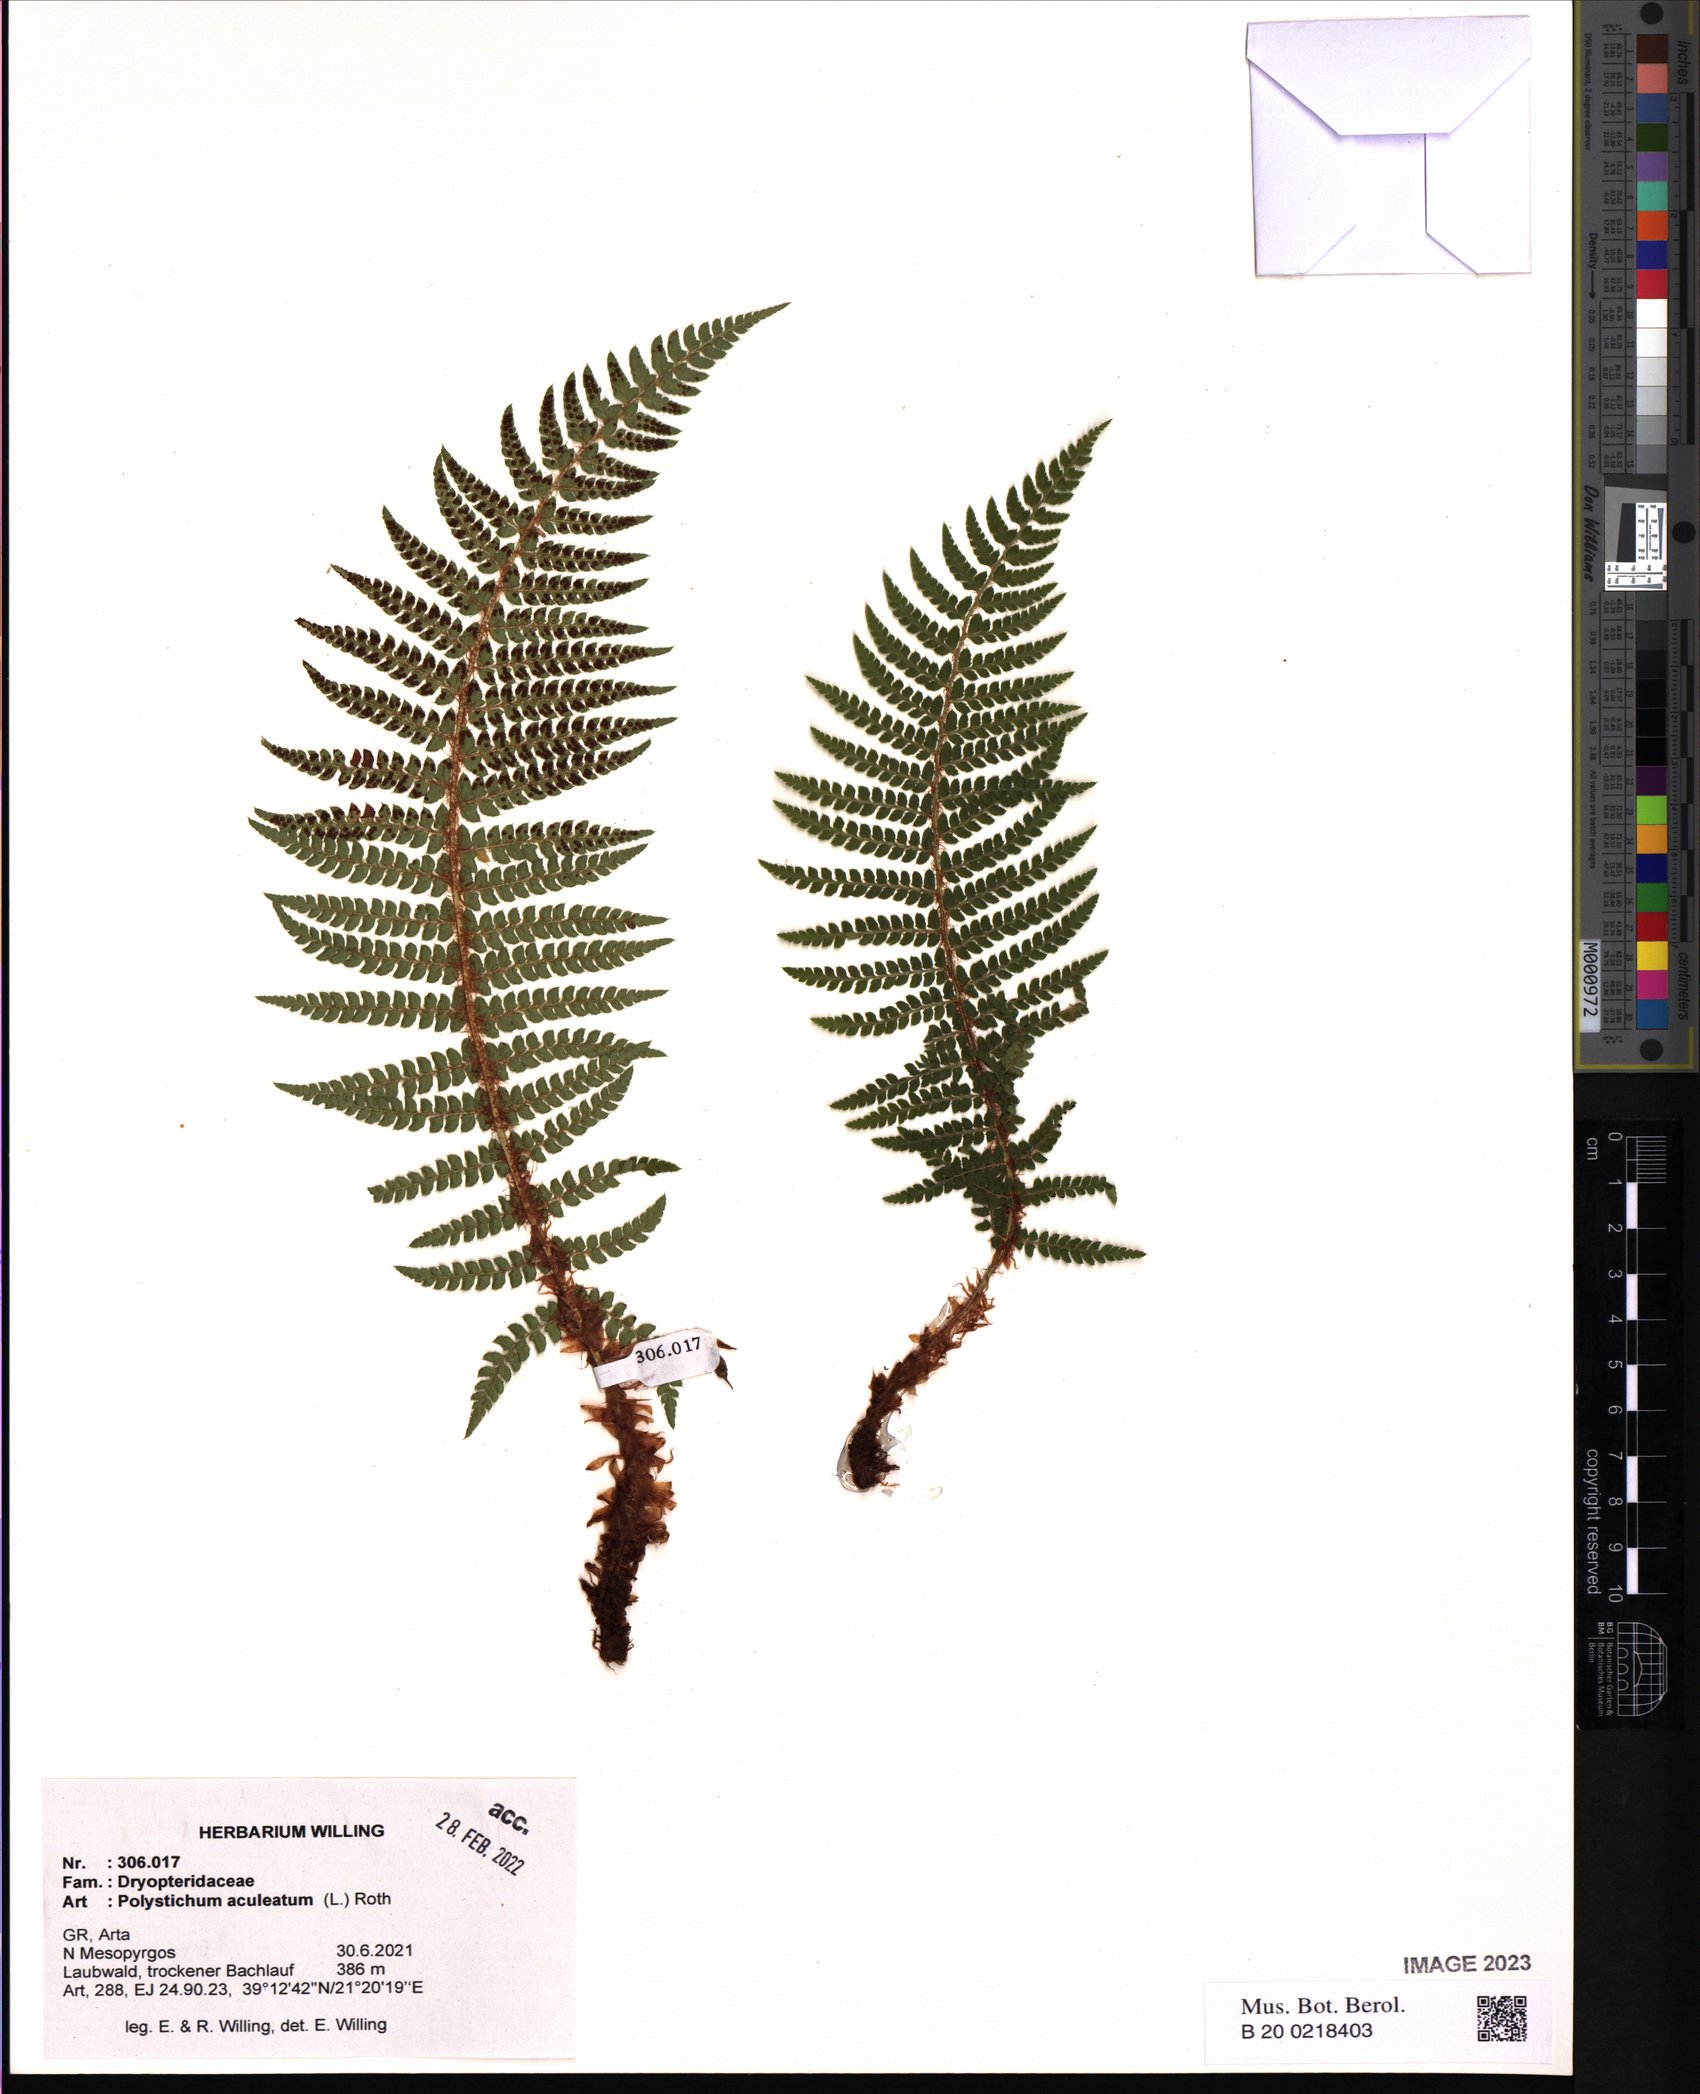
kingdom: Plantae
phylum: Tracheophyta
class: Polypodiopsida
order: Polypodiales
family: Dryopteridaceae
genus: Polystichum
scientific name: Polystichum aculeatum
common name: Hard shield-fern
